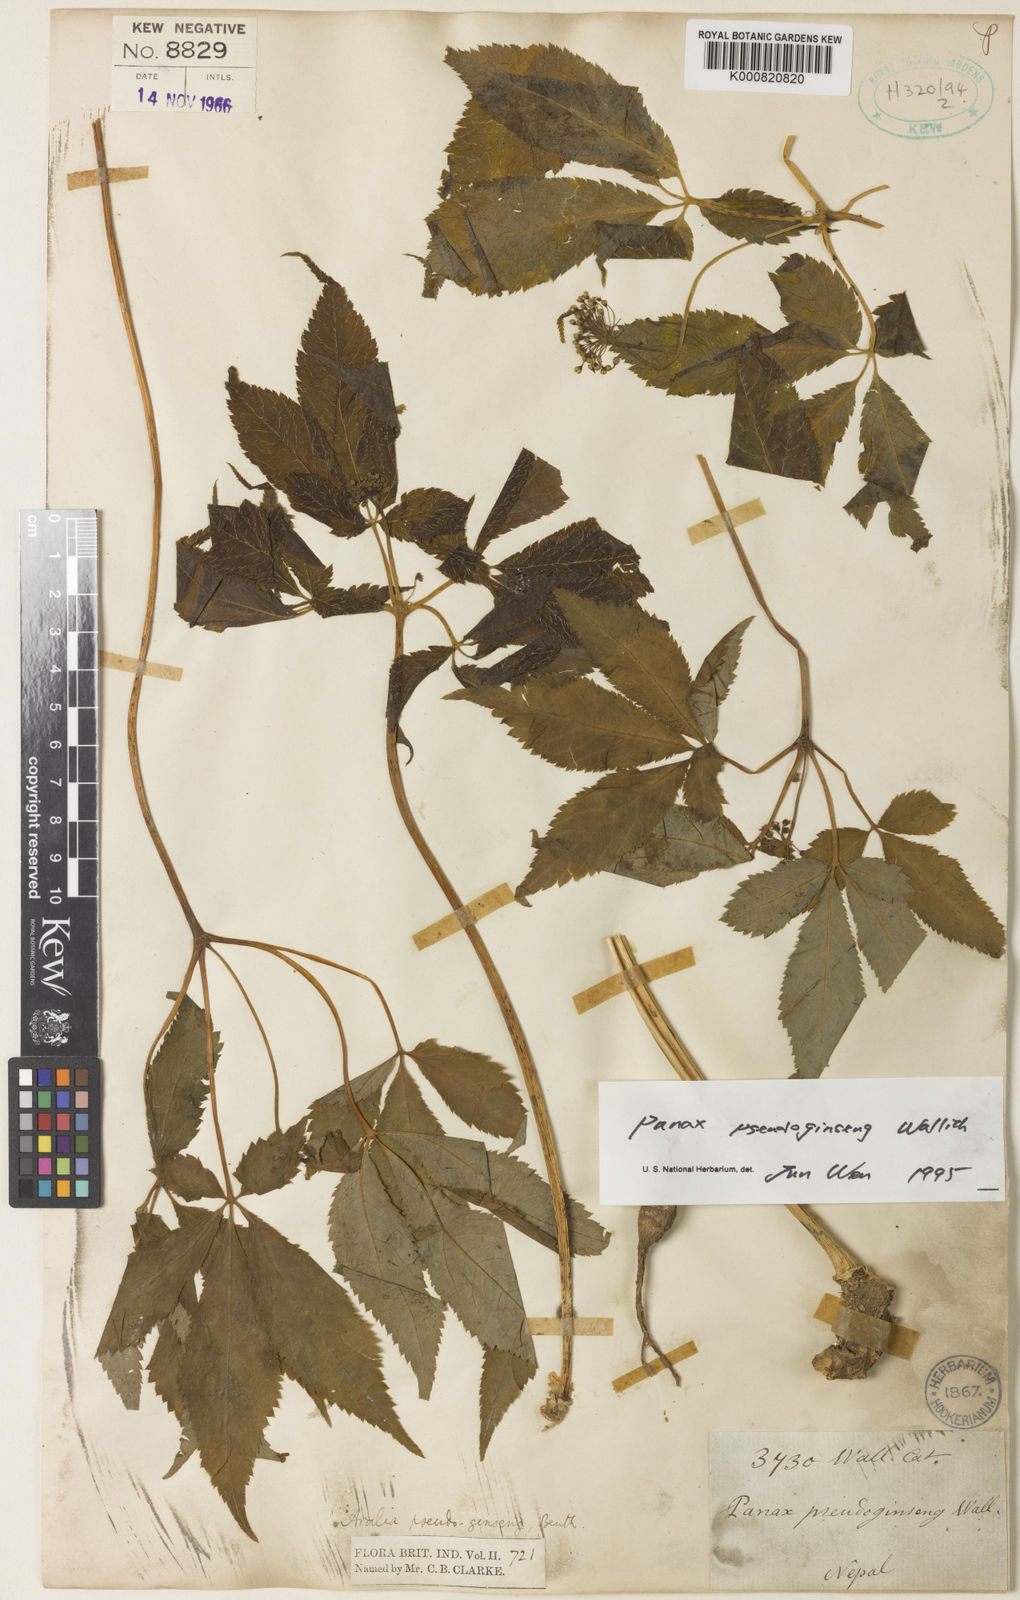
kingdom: Plantae
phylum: Tracheophyta
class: Magnoliopsida
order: Apiales
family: Araliaceae
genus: Panax
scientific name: Panax pseudoginseng
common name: Pseudoginseng
